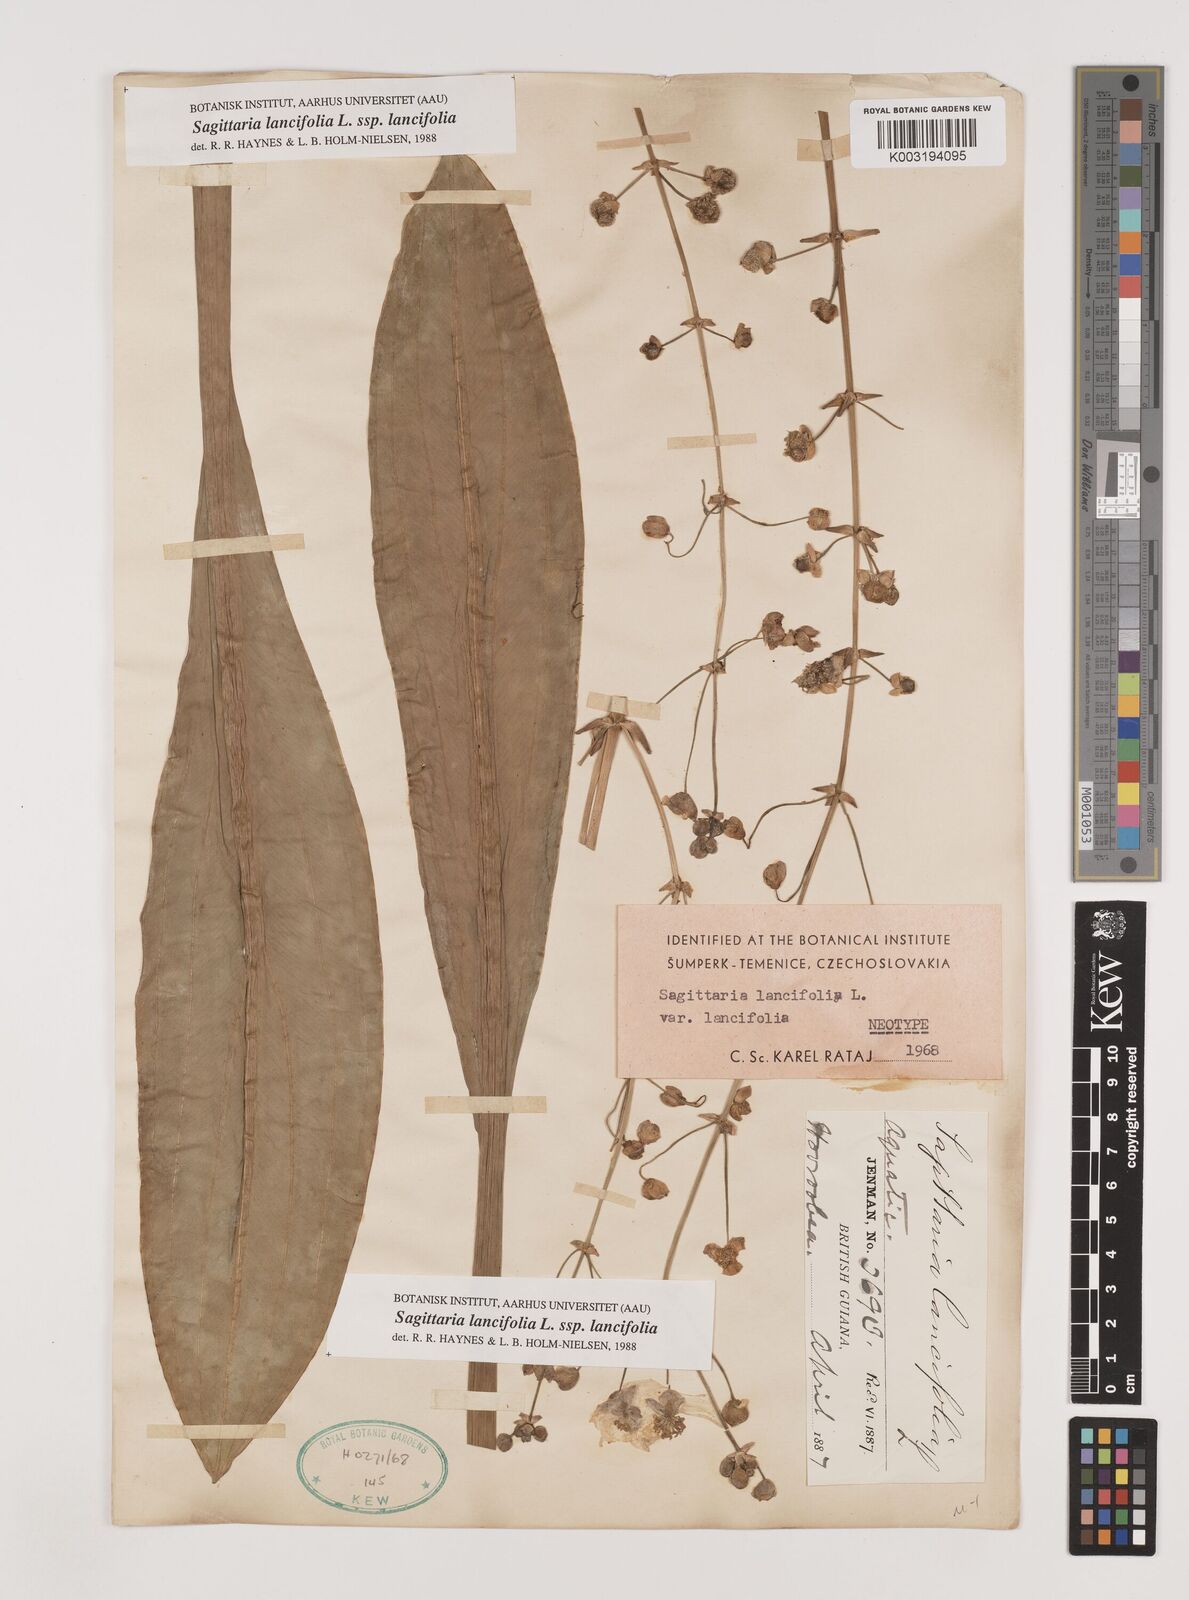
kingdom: Plantae
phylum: Tracheophyta
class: Liliopsida
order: Alismatales
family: Alismataceae
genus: Sagittaria
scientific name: Sagittaria lancifolia
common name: Lance-leaf arrowhead
